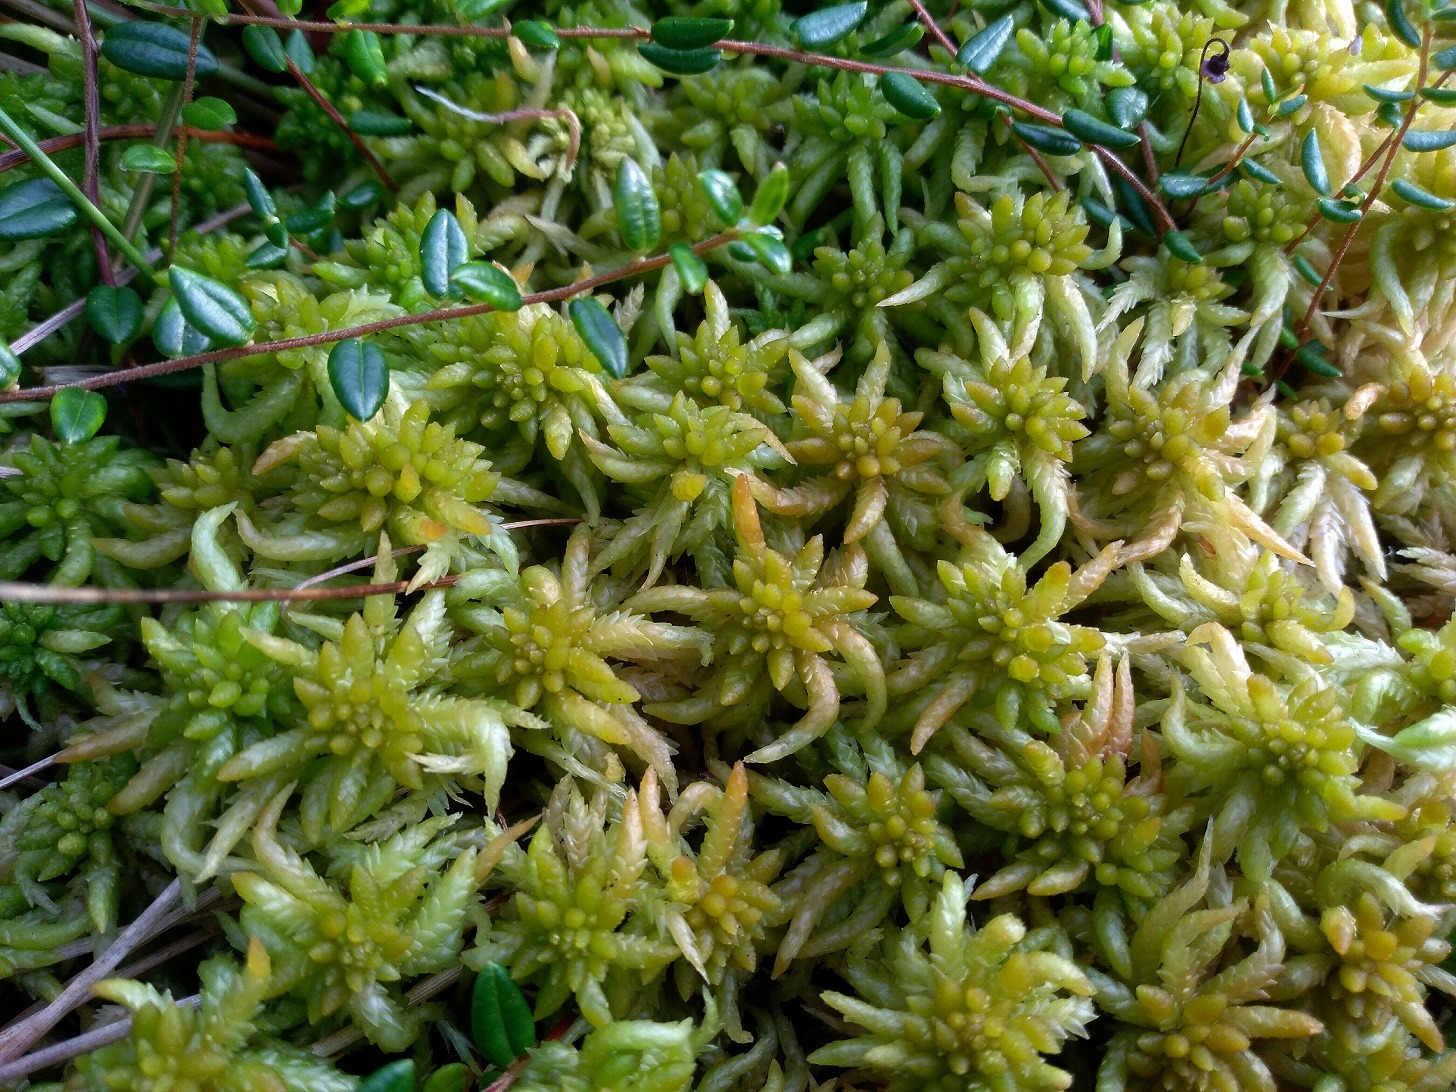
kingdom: Plantae
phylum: Bryophyta
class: Sphagnopsida
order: Sphagnales
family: Sphagnaceae
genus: Sphagnum
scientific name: Sphagnum affine
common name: Stribet tørvemos
